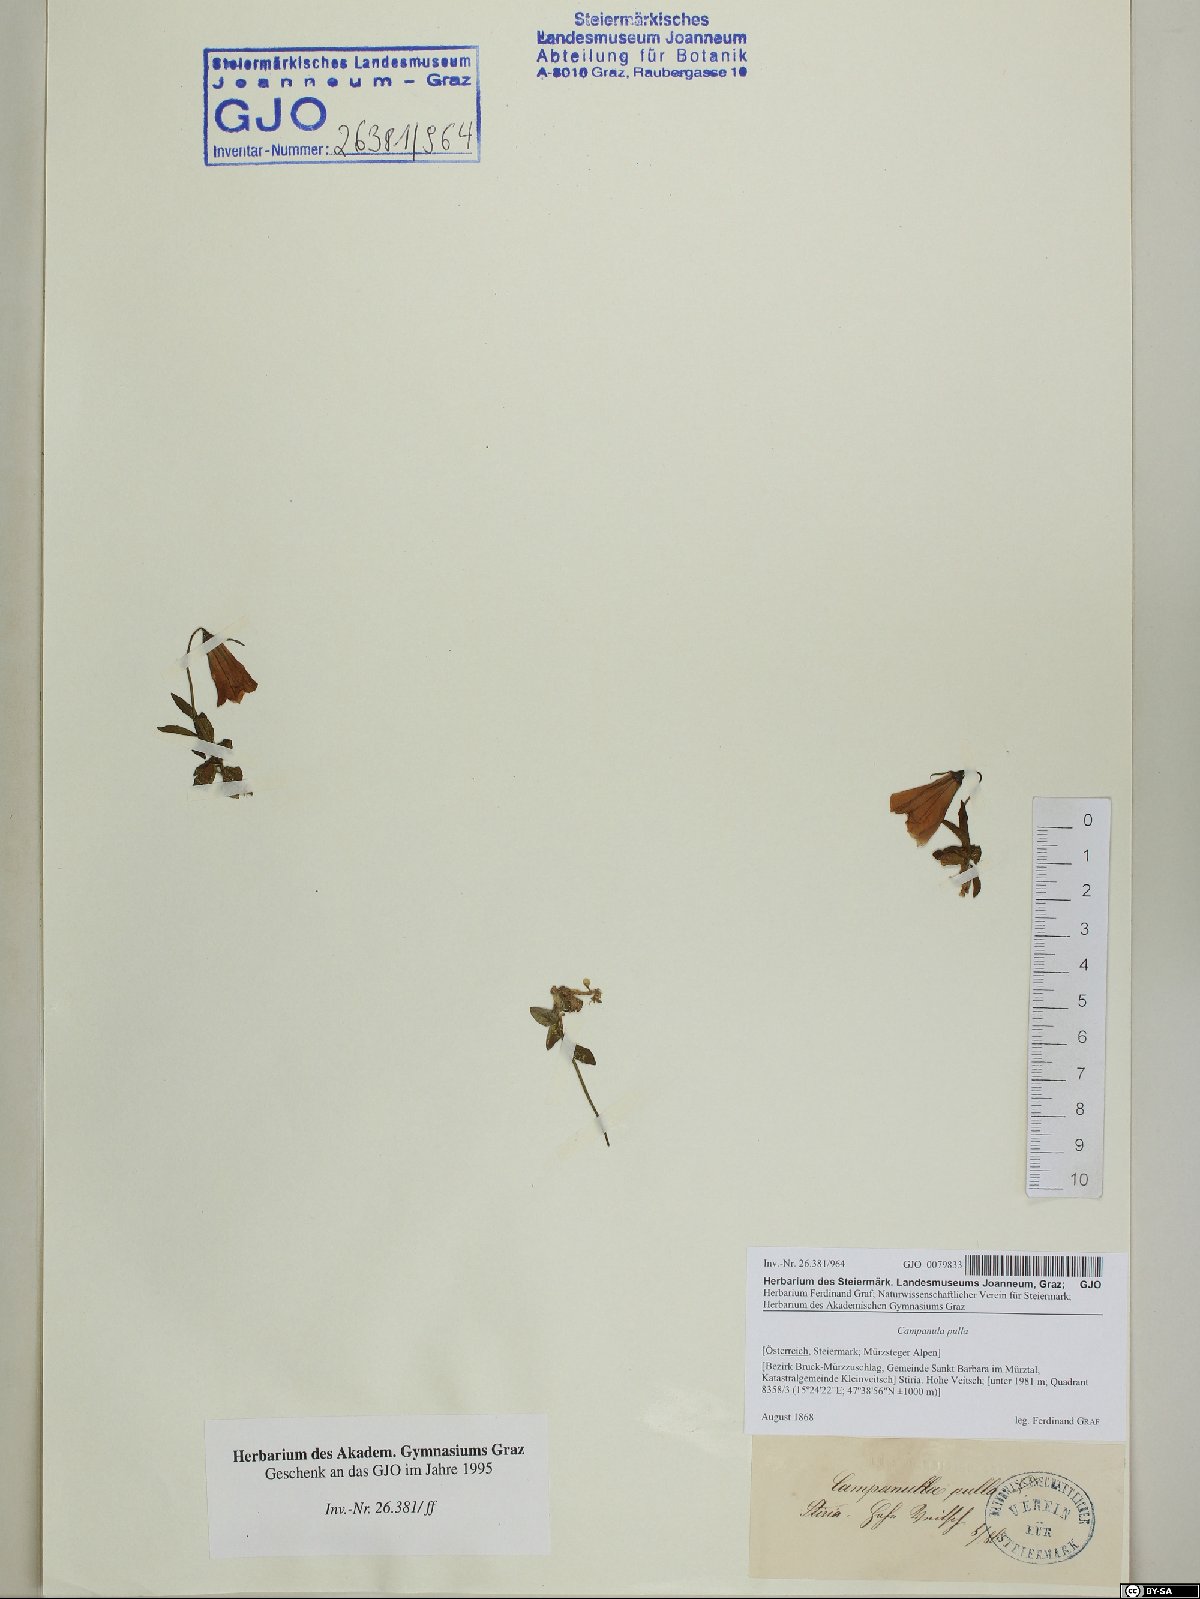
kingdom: Plantae
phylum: Tracheophyta
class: Magnoliopsida
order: Asterales
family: Campanulaceae
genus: Campanula
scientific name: Campanula pulla
